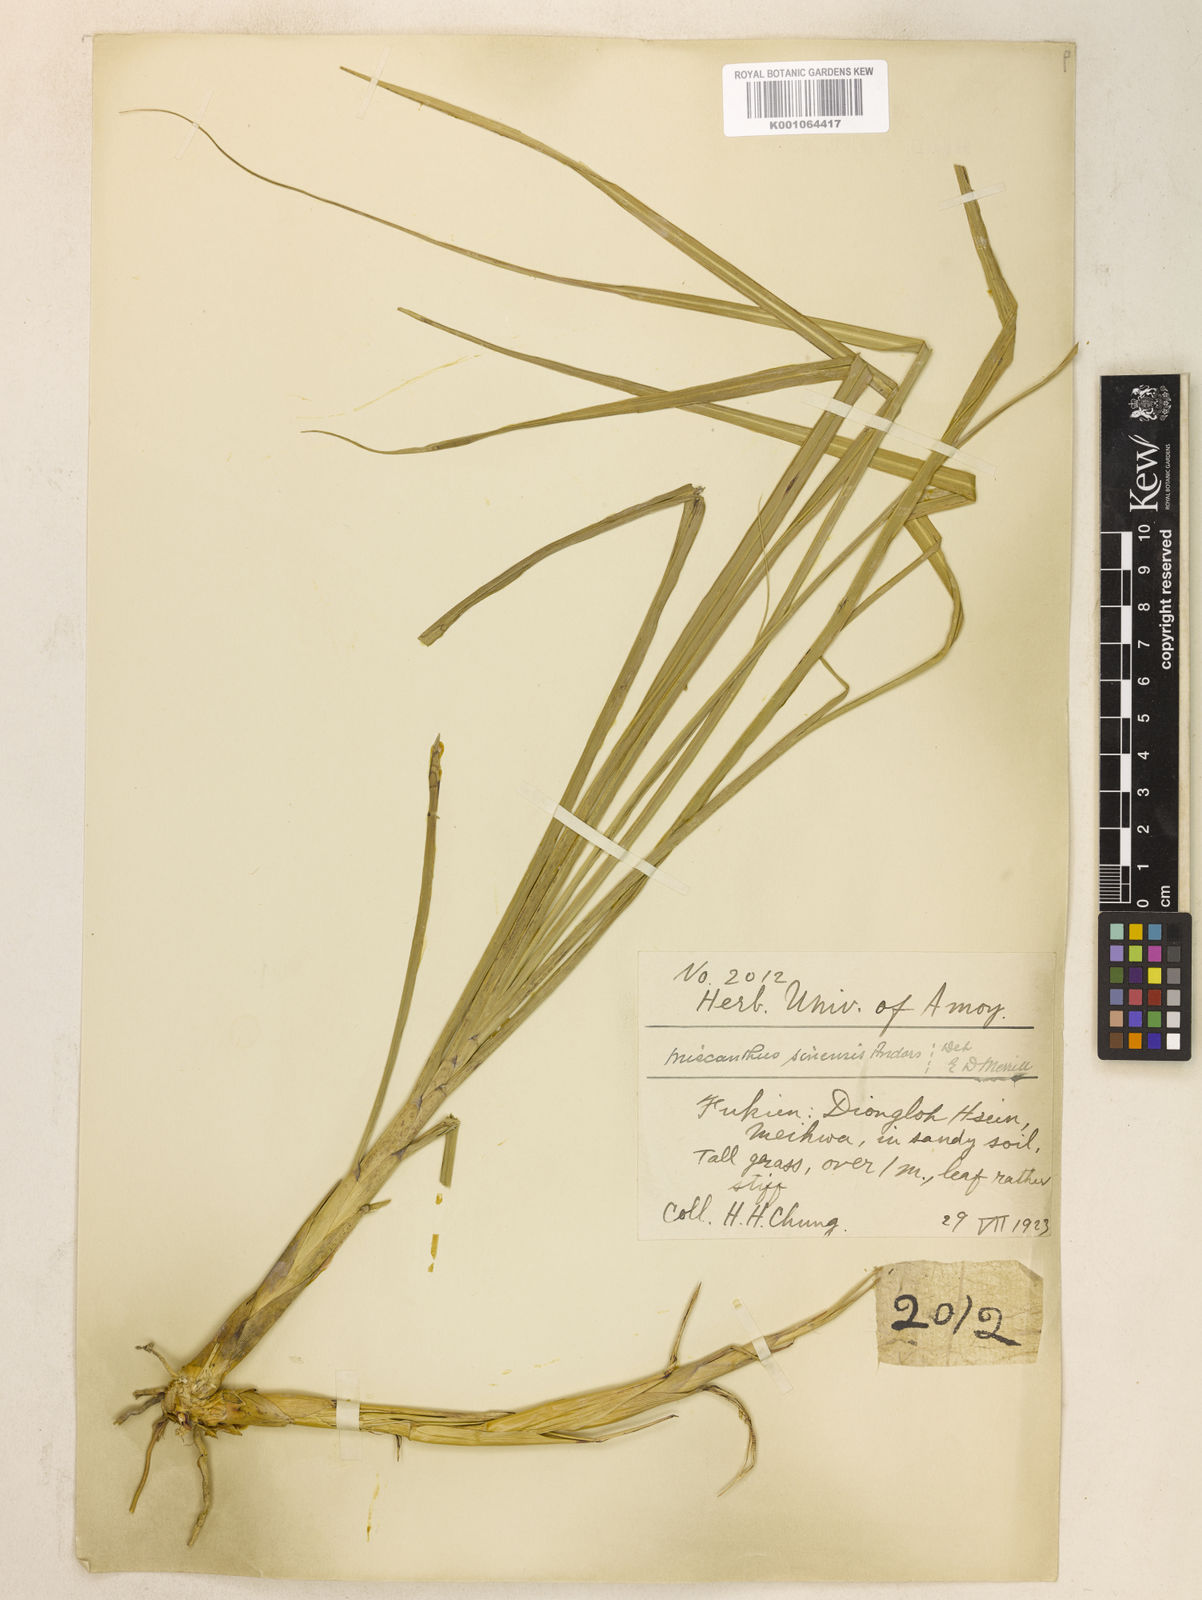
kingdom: Plantae
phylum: Tracheophyta
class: Liliopsida
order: Poales
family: Poaceae
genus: Miscanthus
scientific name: Miscanthus sinensis
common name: Chinese silvergrass
